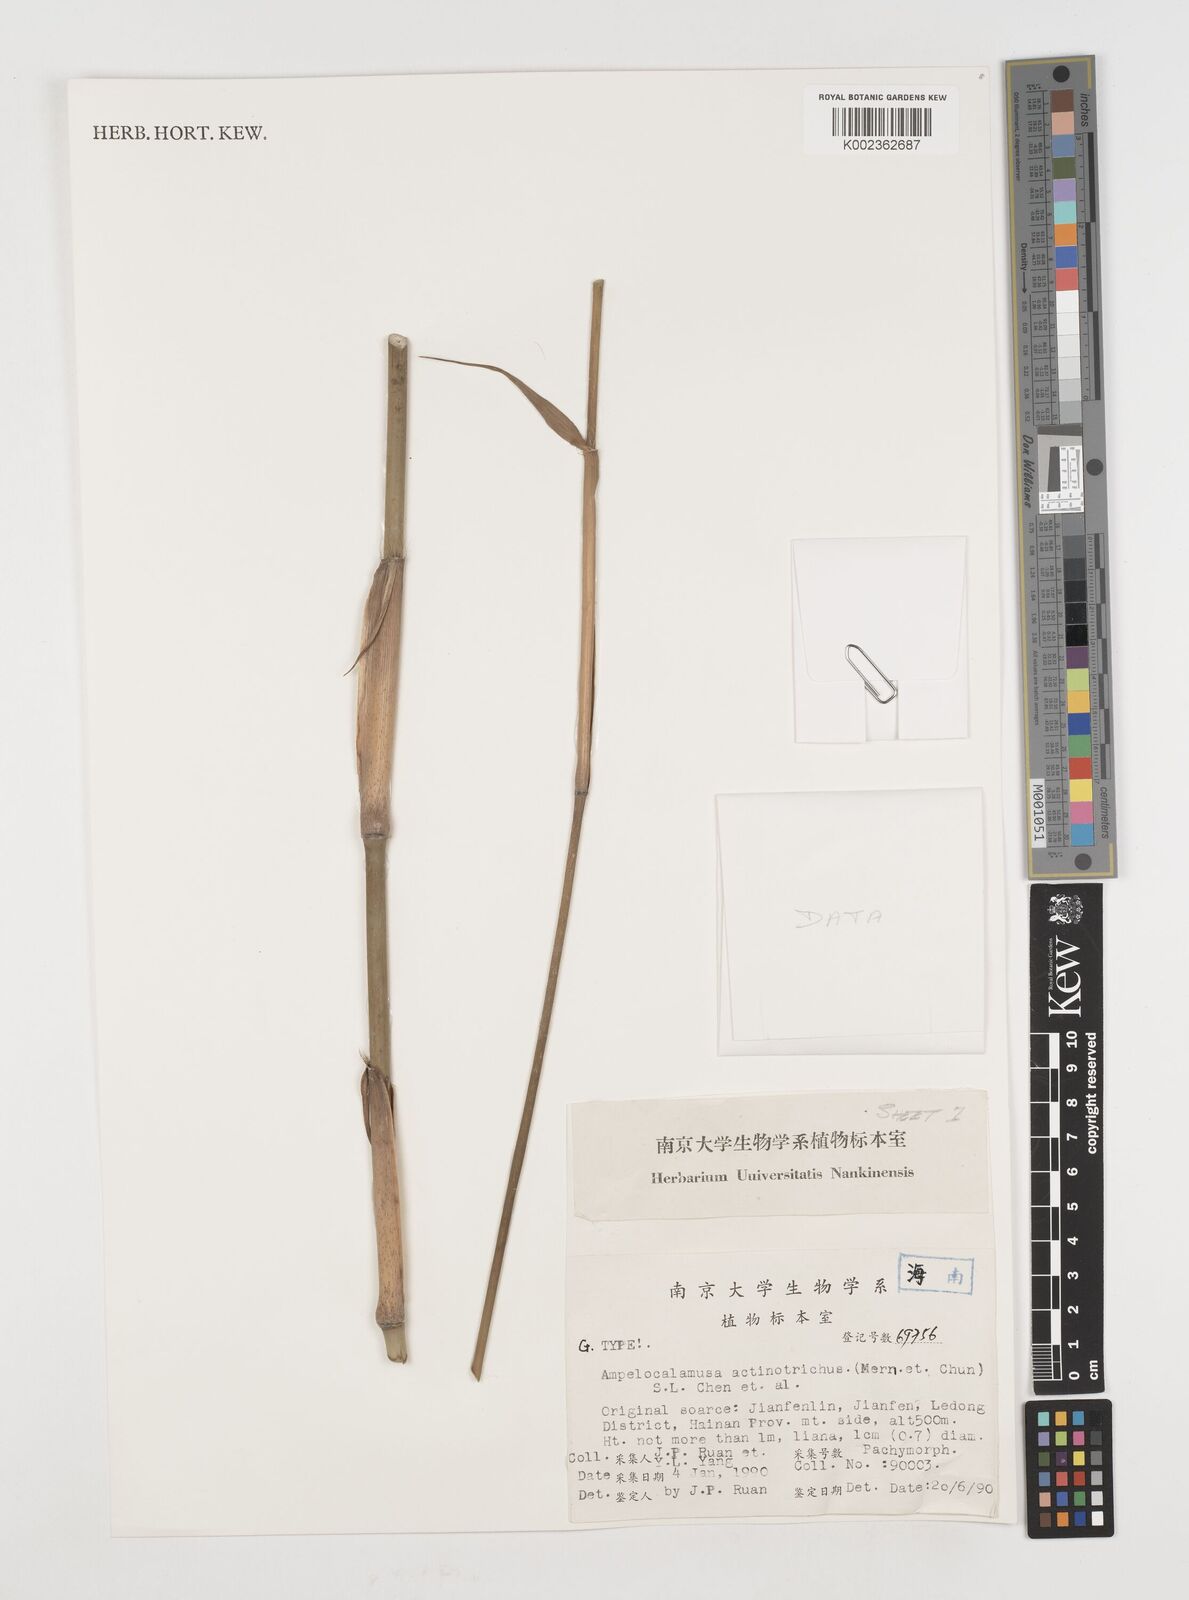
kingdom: Plantae
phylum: Tracheophyta
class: Liliopsida
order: Poales
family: Poaceae
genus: Ampelocalamus
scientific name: Ampelocalamus actinotrichus
